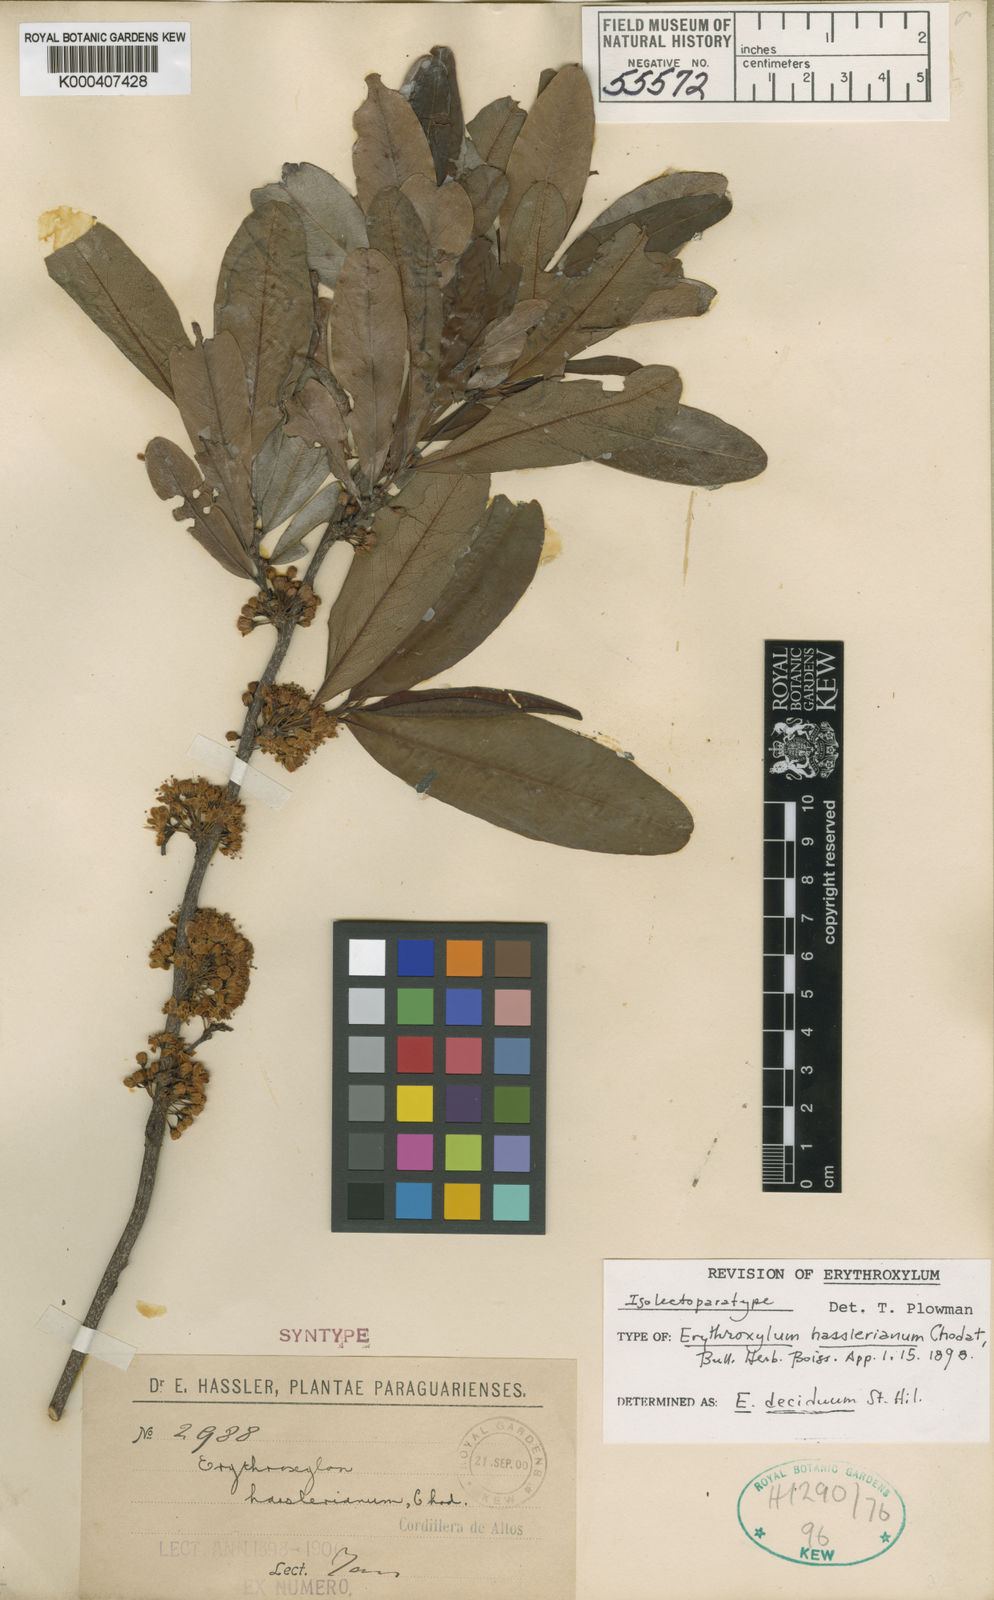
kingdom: Plantae
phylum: Tracheophyta
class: Magnoliopsida
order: Malpighiales
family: Erythroxylaceae
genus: Erythroxylum
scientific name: Erythroxylum deciduum
